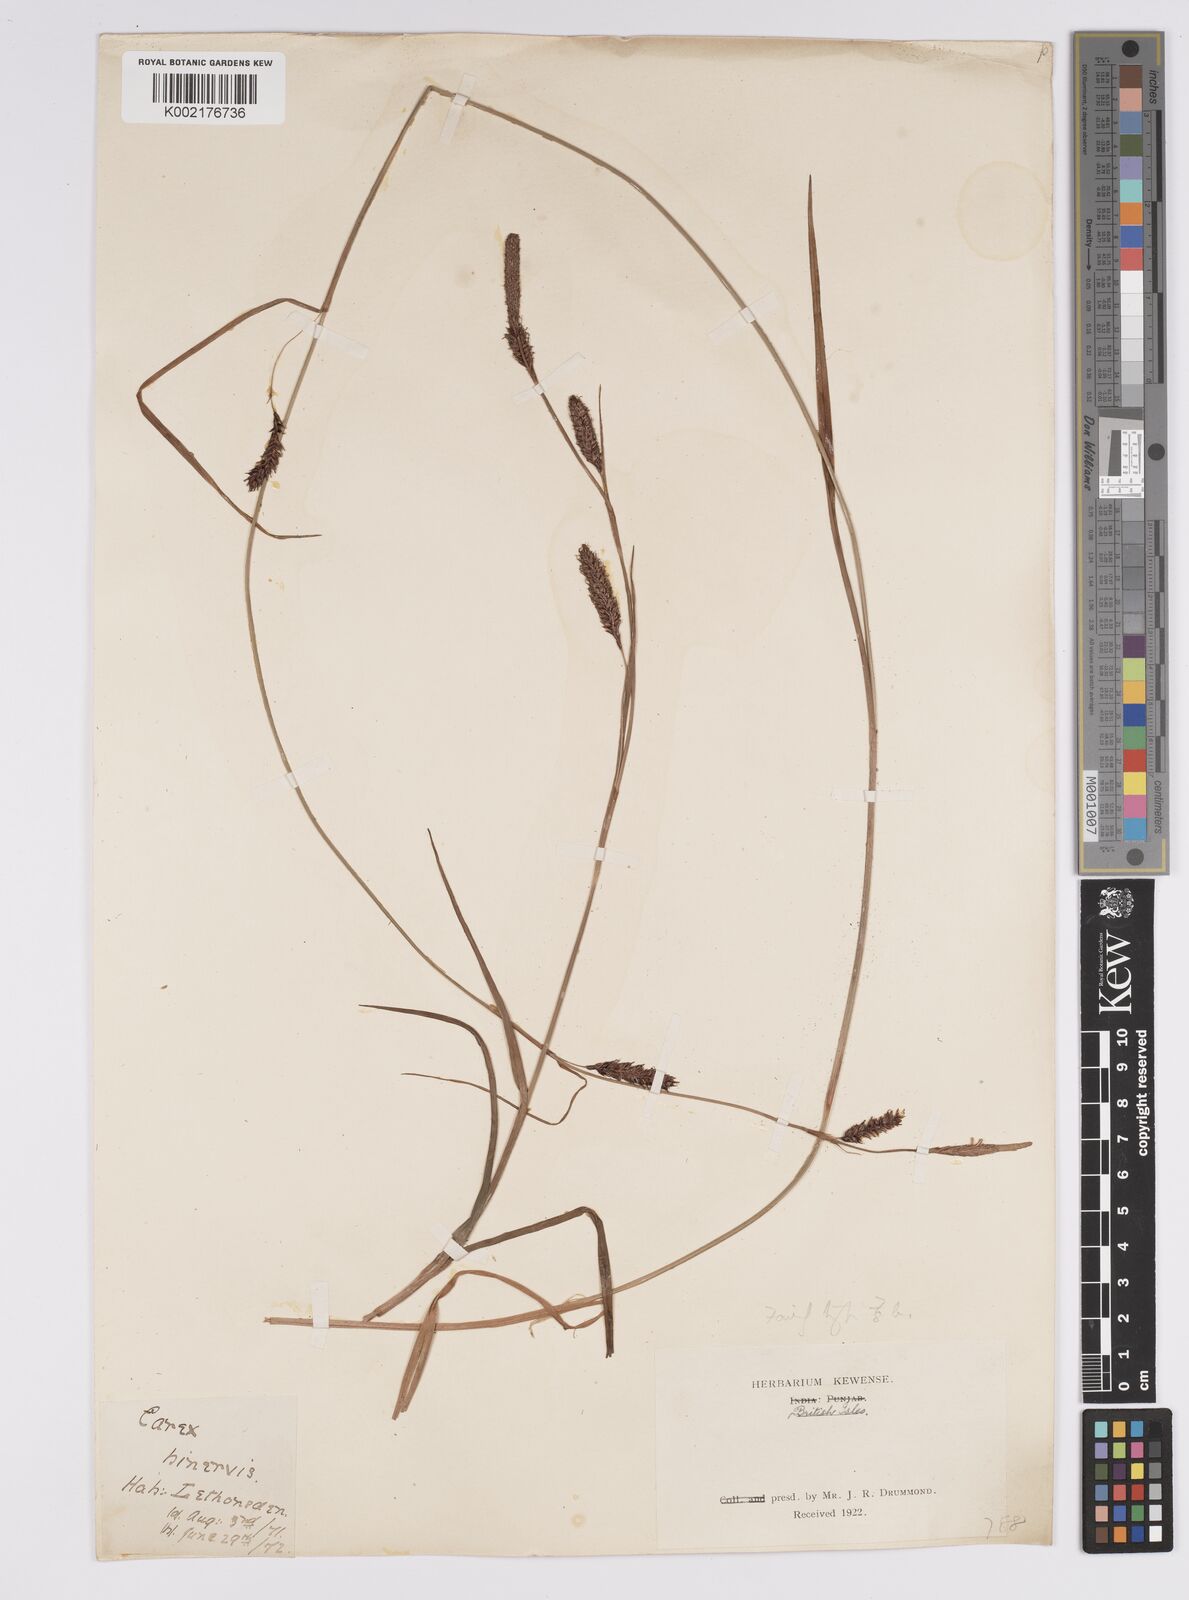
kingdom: Plantae
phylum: Tracheophyta
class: Liliopsida
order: Poales
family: Cyperaceae
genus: Carex
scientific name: Carex binervis
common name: Green-ribbed sedge
